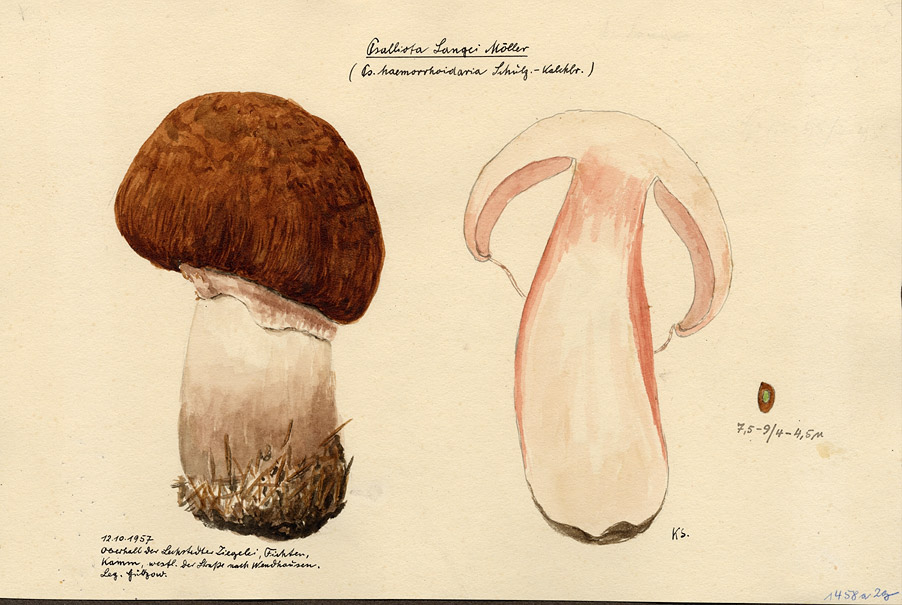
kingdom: Fungi
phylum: Basidiomycota
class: Agaricomycetes
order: Agaricales
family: Agaricaceae
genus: Agaricus
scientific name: Agaricus langei
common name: Scaly wood mushroom
